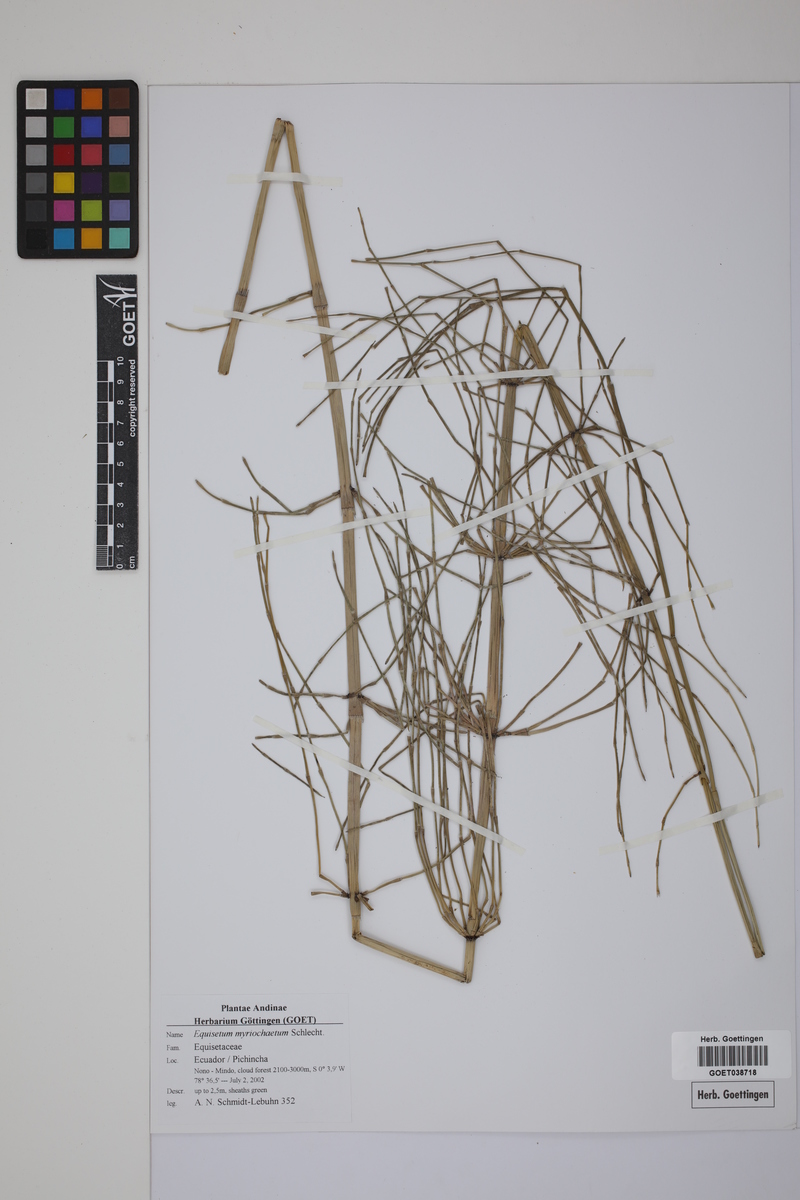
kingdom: Plantae
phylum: Tracheophyta
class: Polypodiopsida
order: Equisetales
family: Equisetaceae
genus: Equisetum
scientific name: Equisetum myriochaetum
